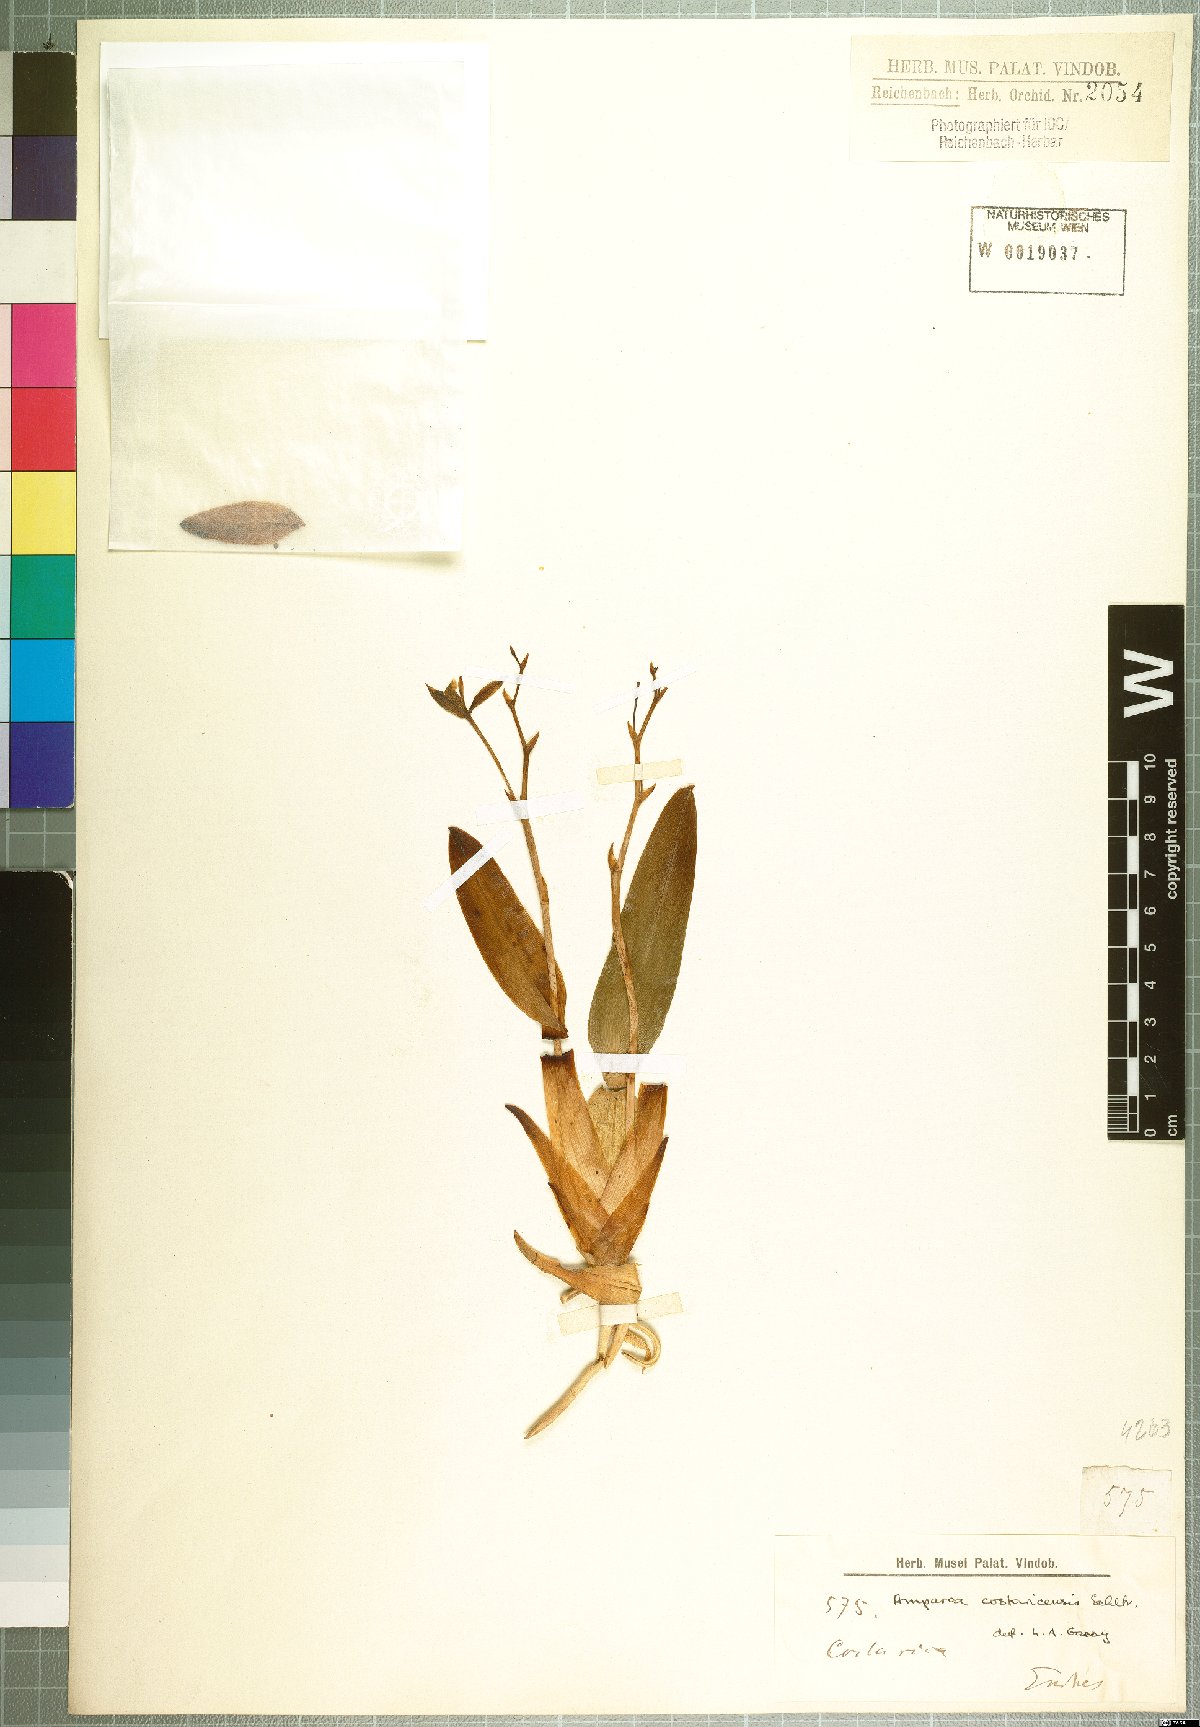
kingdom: Plantae
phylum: Tracheophyta
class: Liliopsida
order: Asparagales
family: Orchidaceae
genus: Rossioglossum
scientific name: Rossioglossum beloglossum
